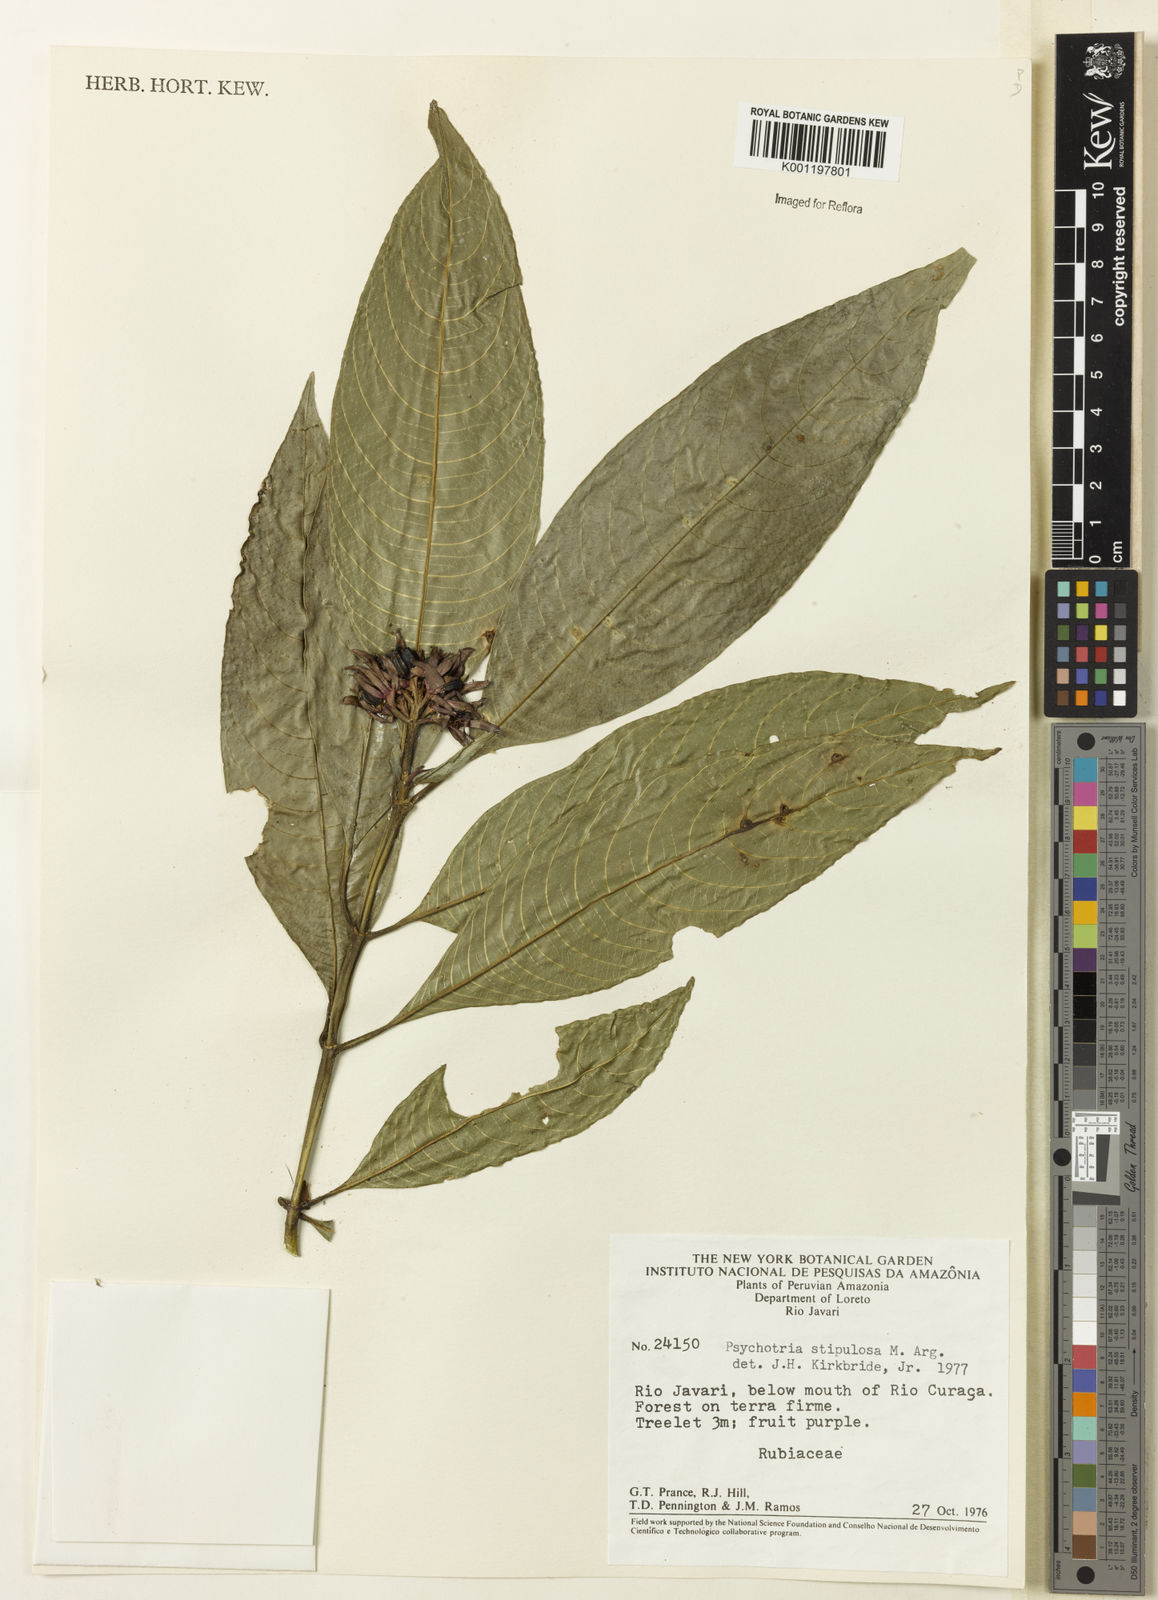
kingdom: Plantae
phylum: Tracheophyta
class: Magnoliopsida
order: Gentianales
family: Rubiaceae
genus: Psychotria
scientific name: Psychotria
